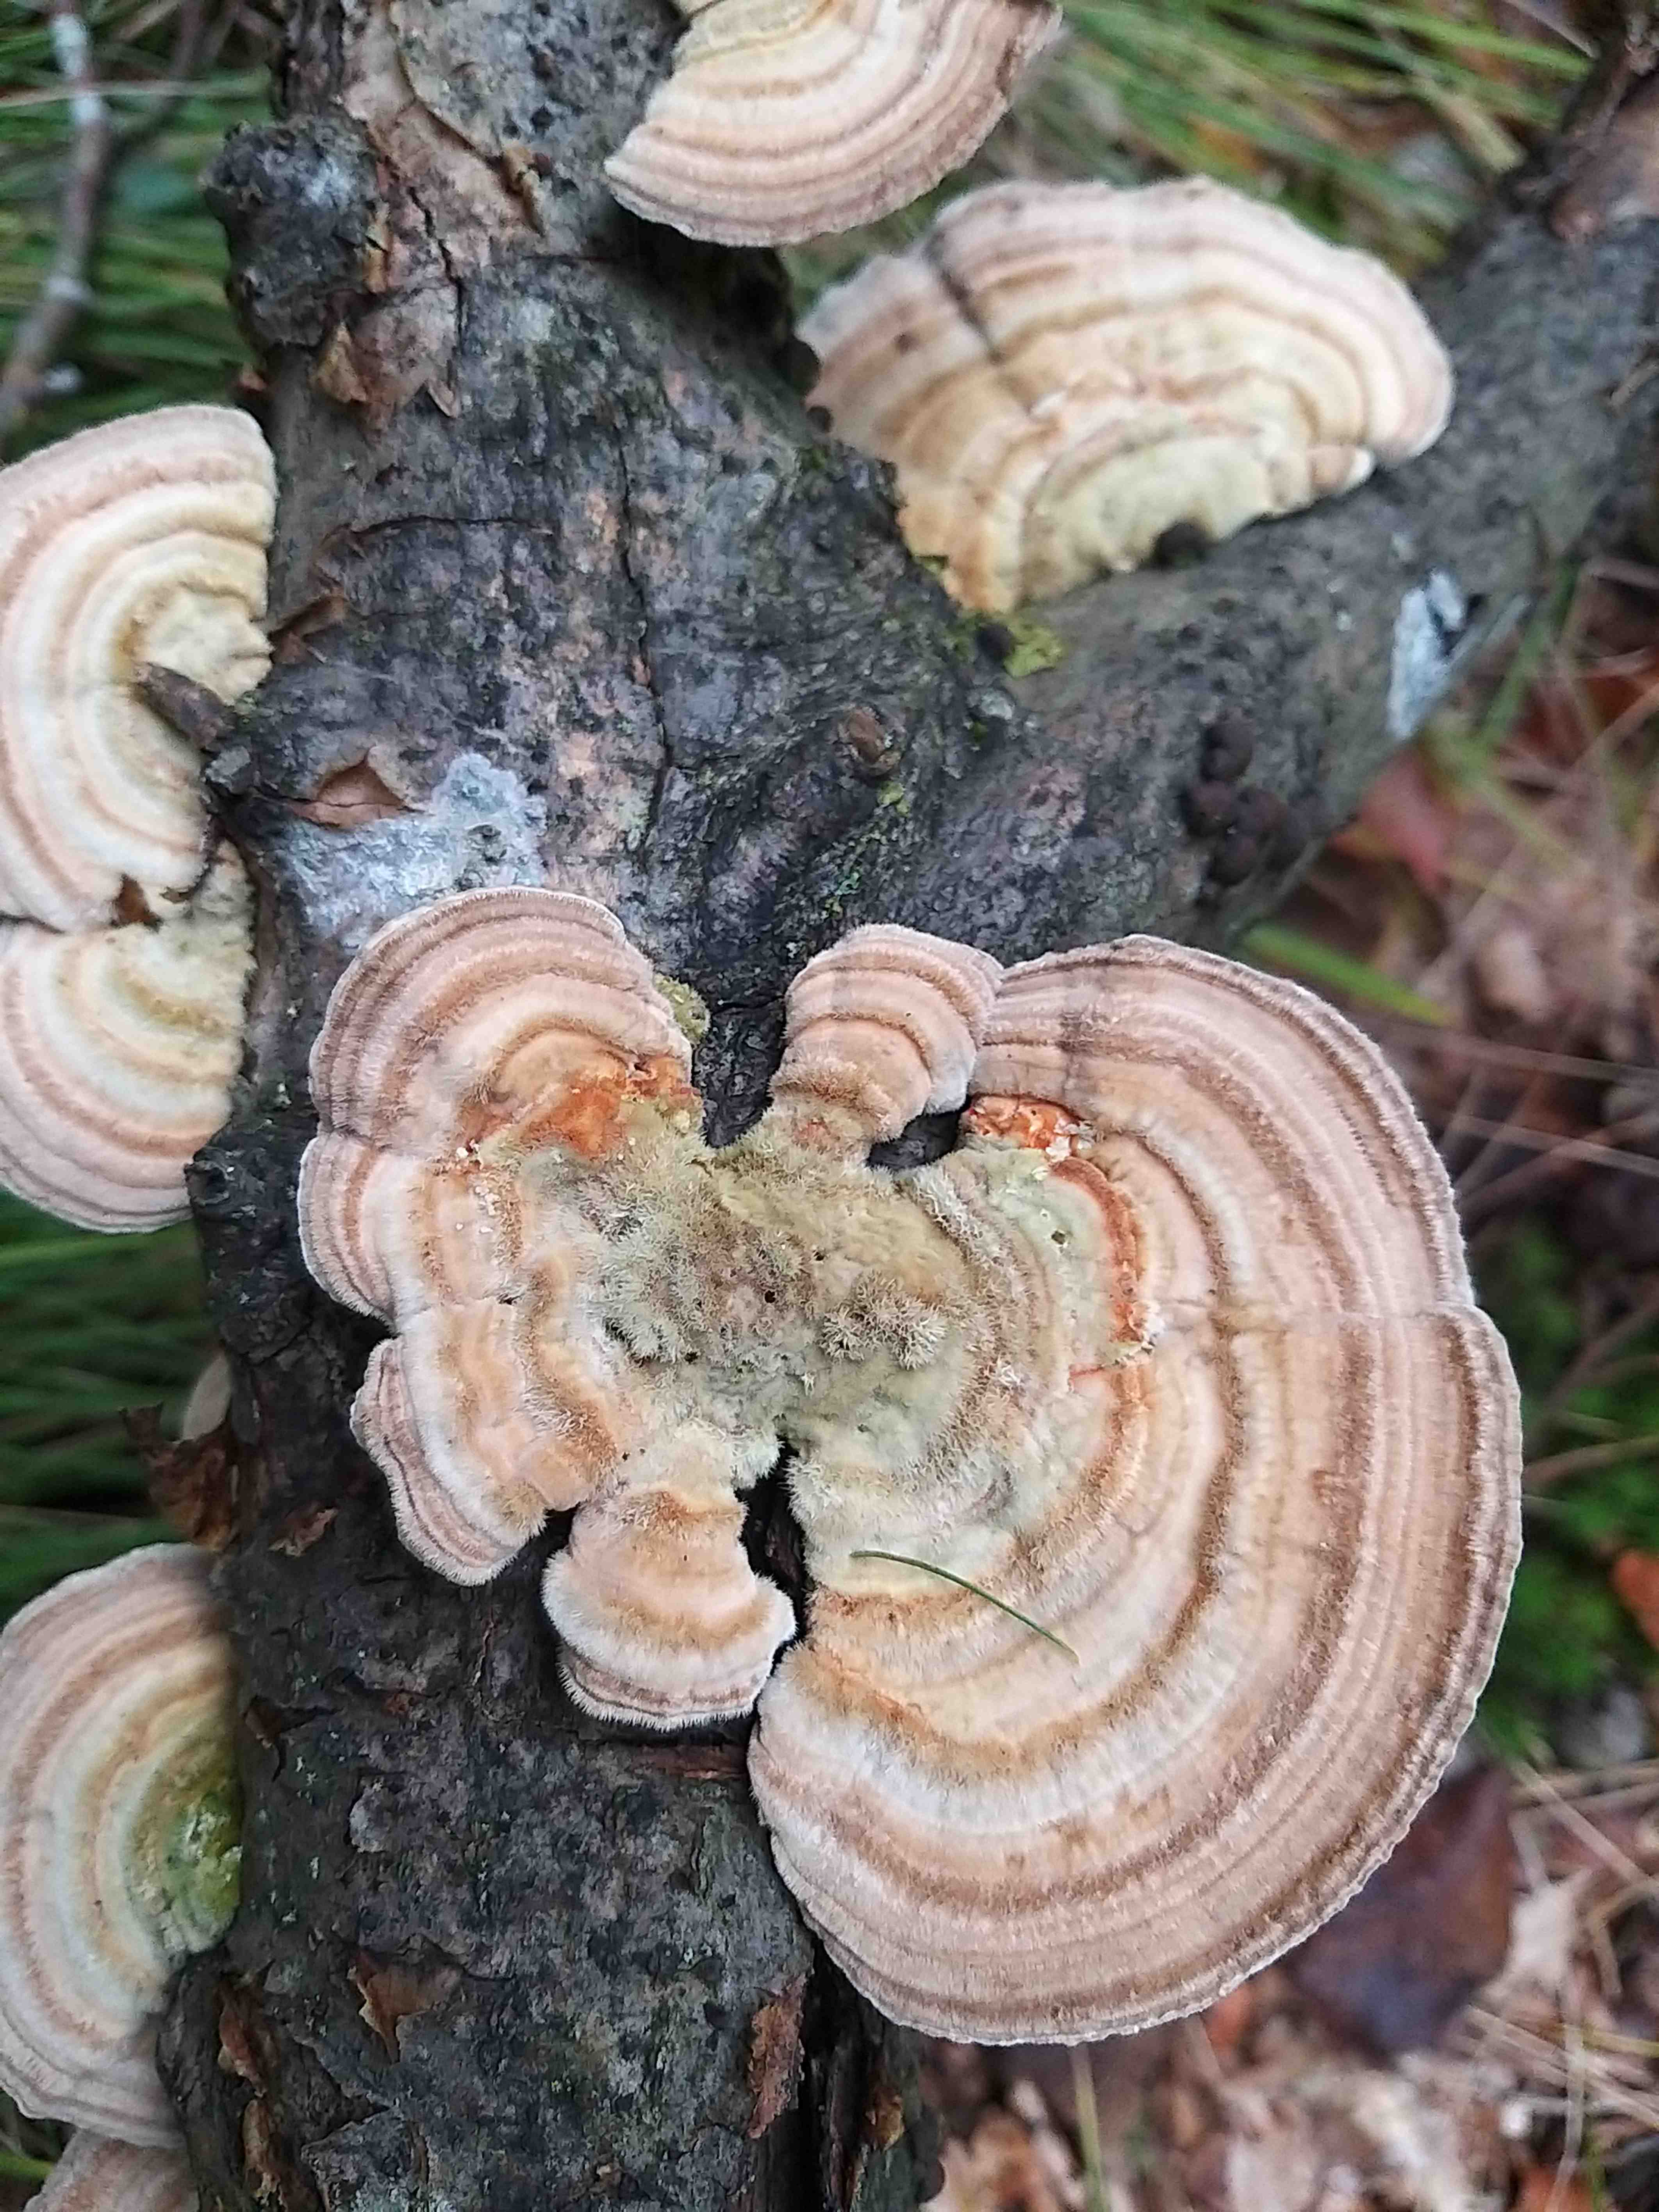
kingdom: Fungi
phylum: Basidiomycota
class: Agaricomycetes
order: Polyporales
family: Polyporaceae
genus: Lenzites
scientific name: Lenzites betulinus
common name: birke-læderporesvamp
